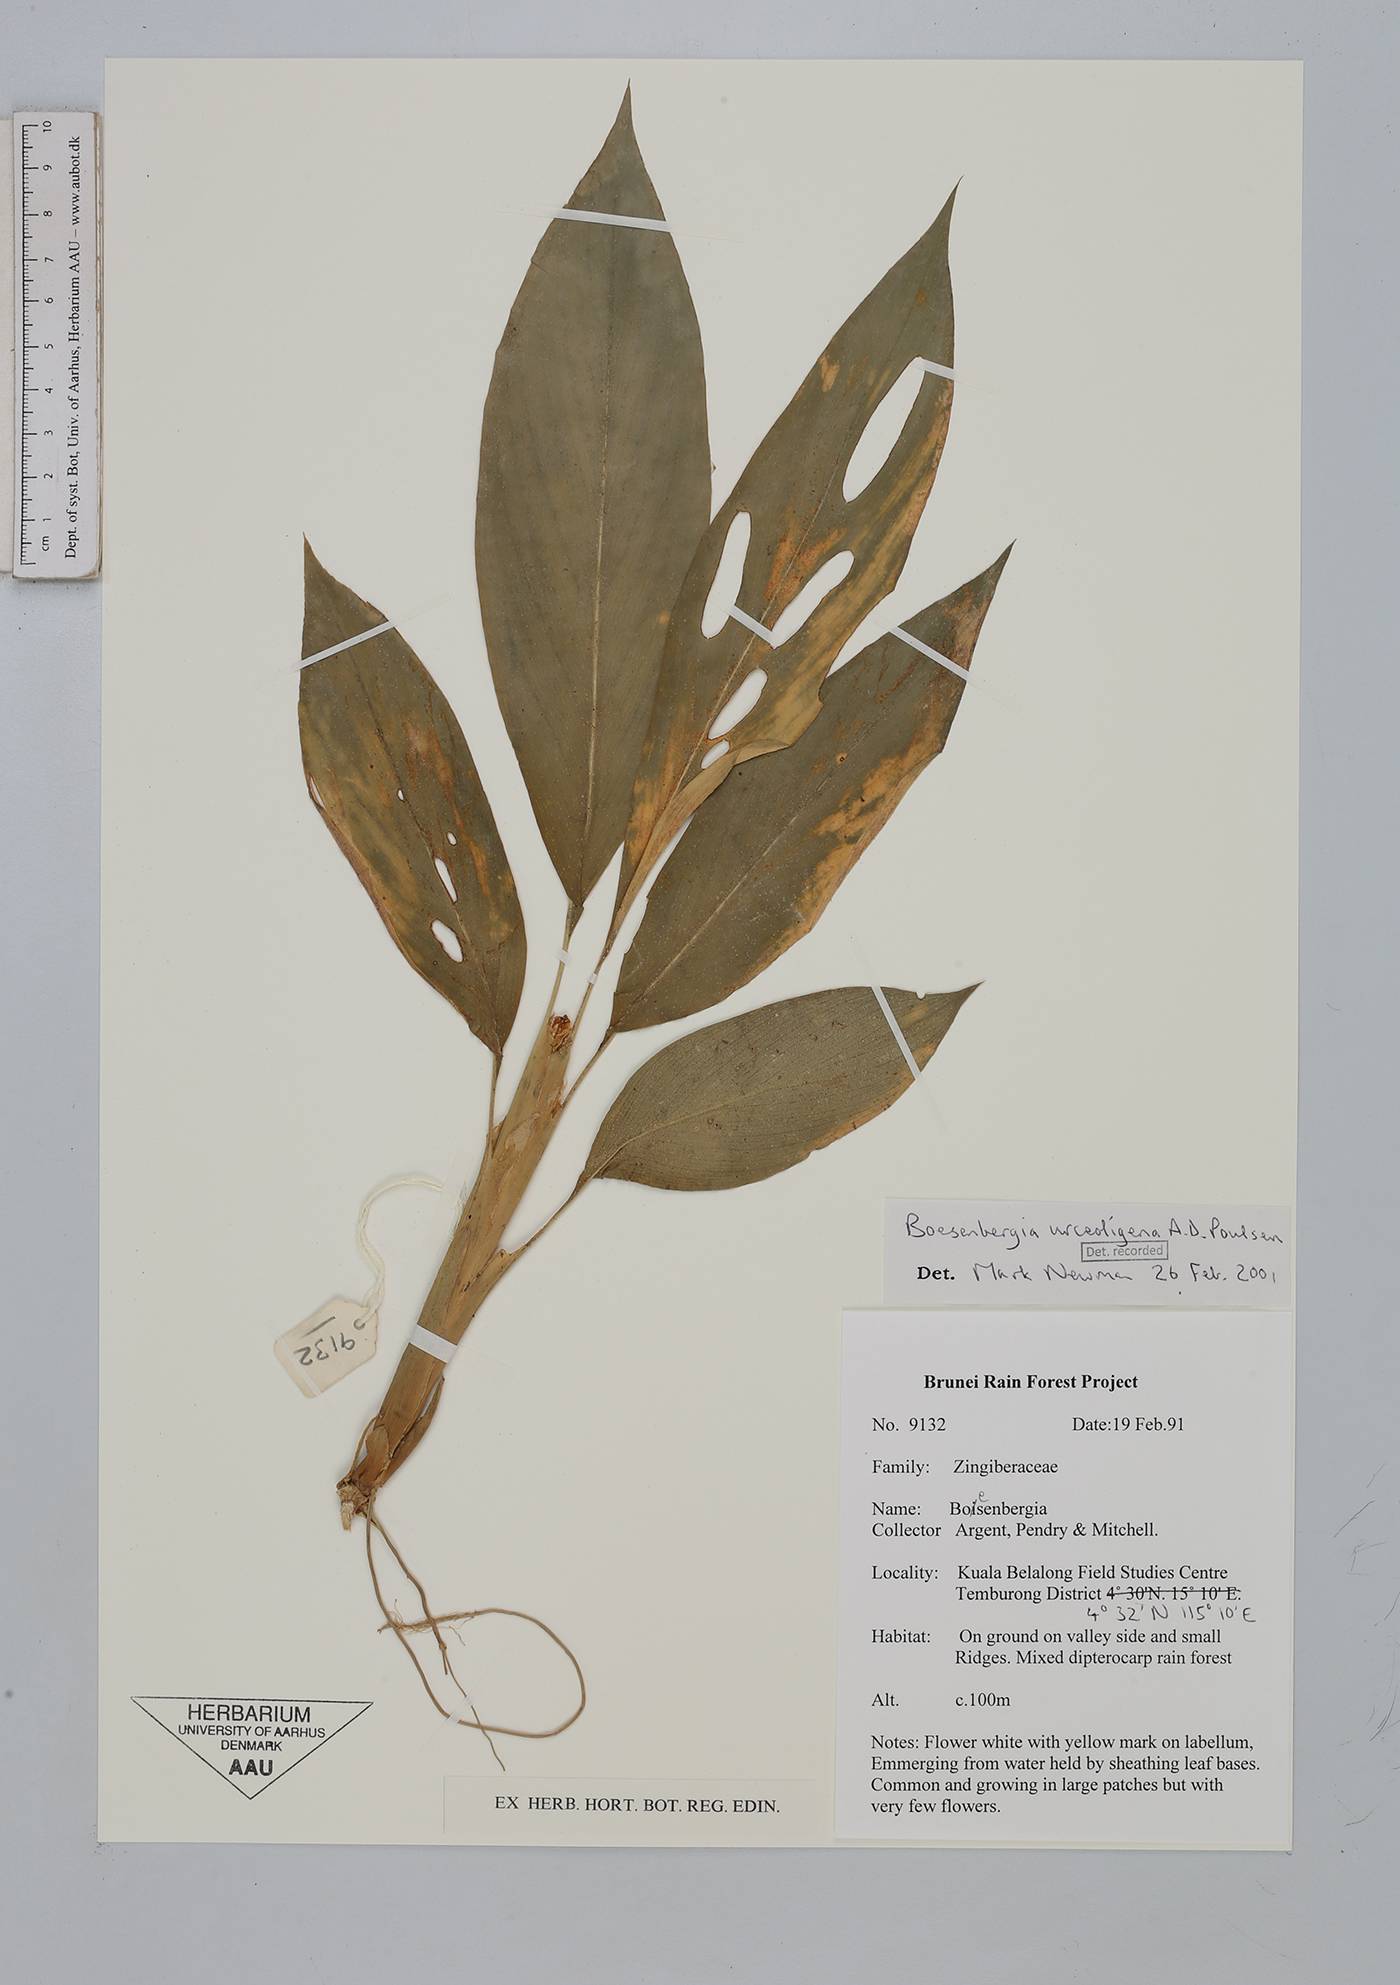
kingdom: Plantae
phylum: Tracheophyta
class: Liliopsida
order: Zingiberales
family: Zingiberaceae
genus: Boesenbergia
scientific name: Boesenbergia urceoligena
